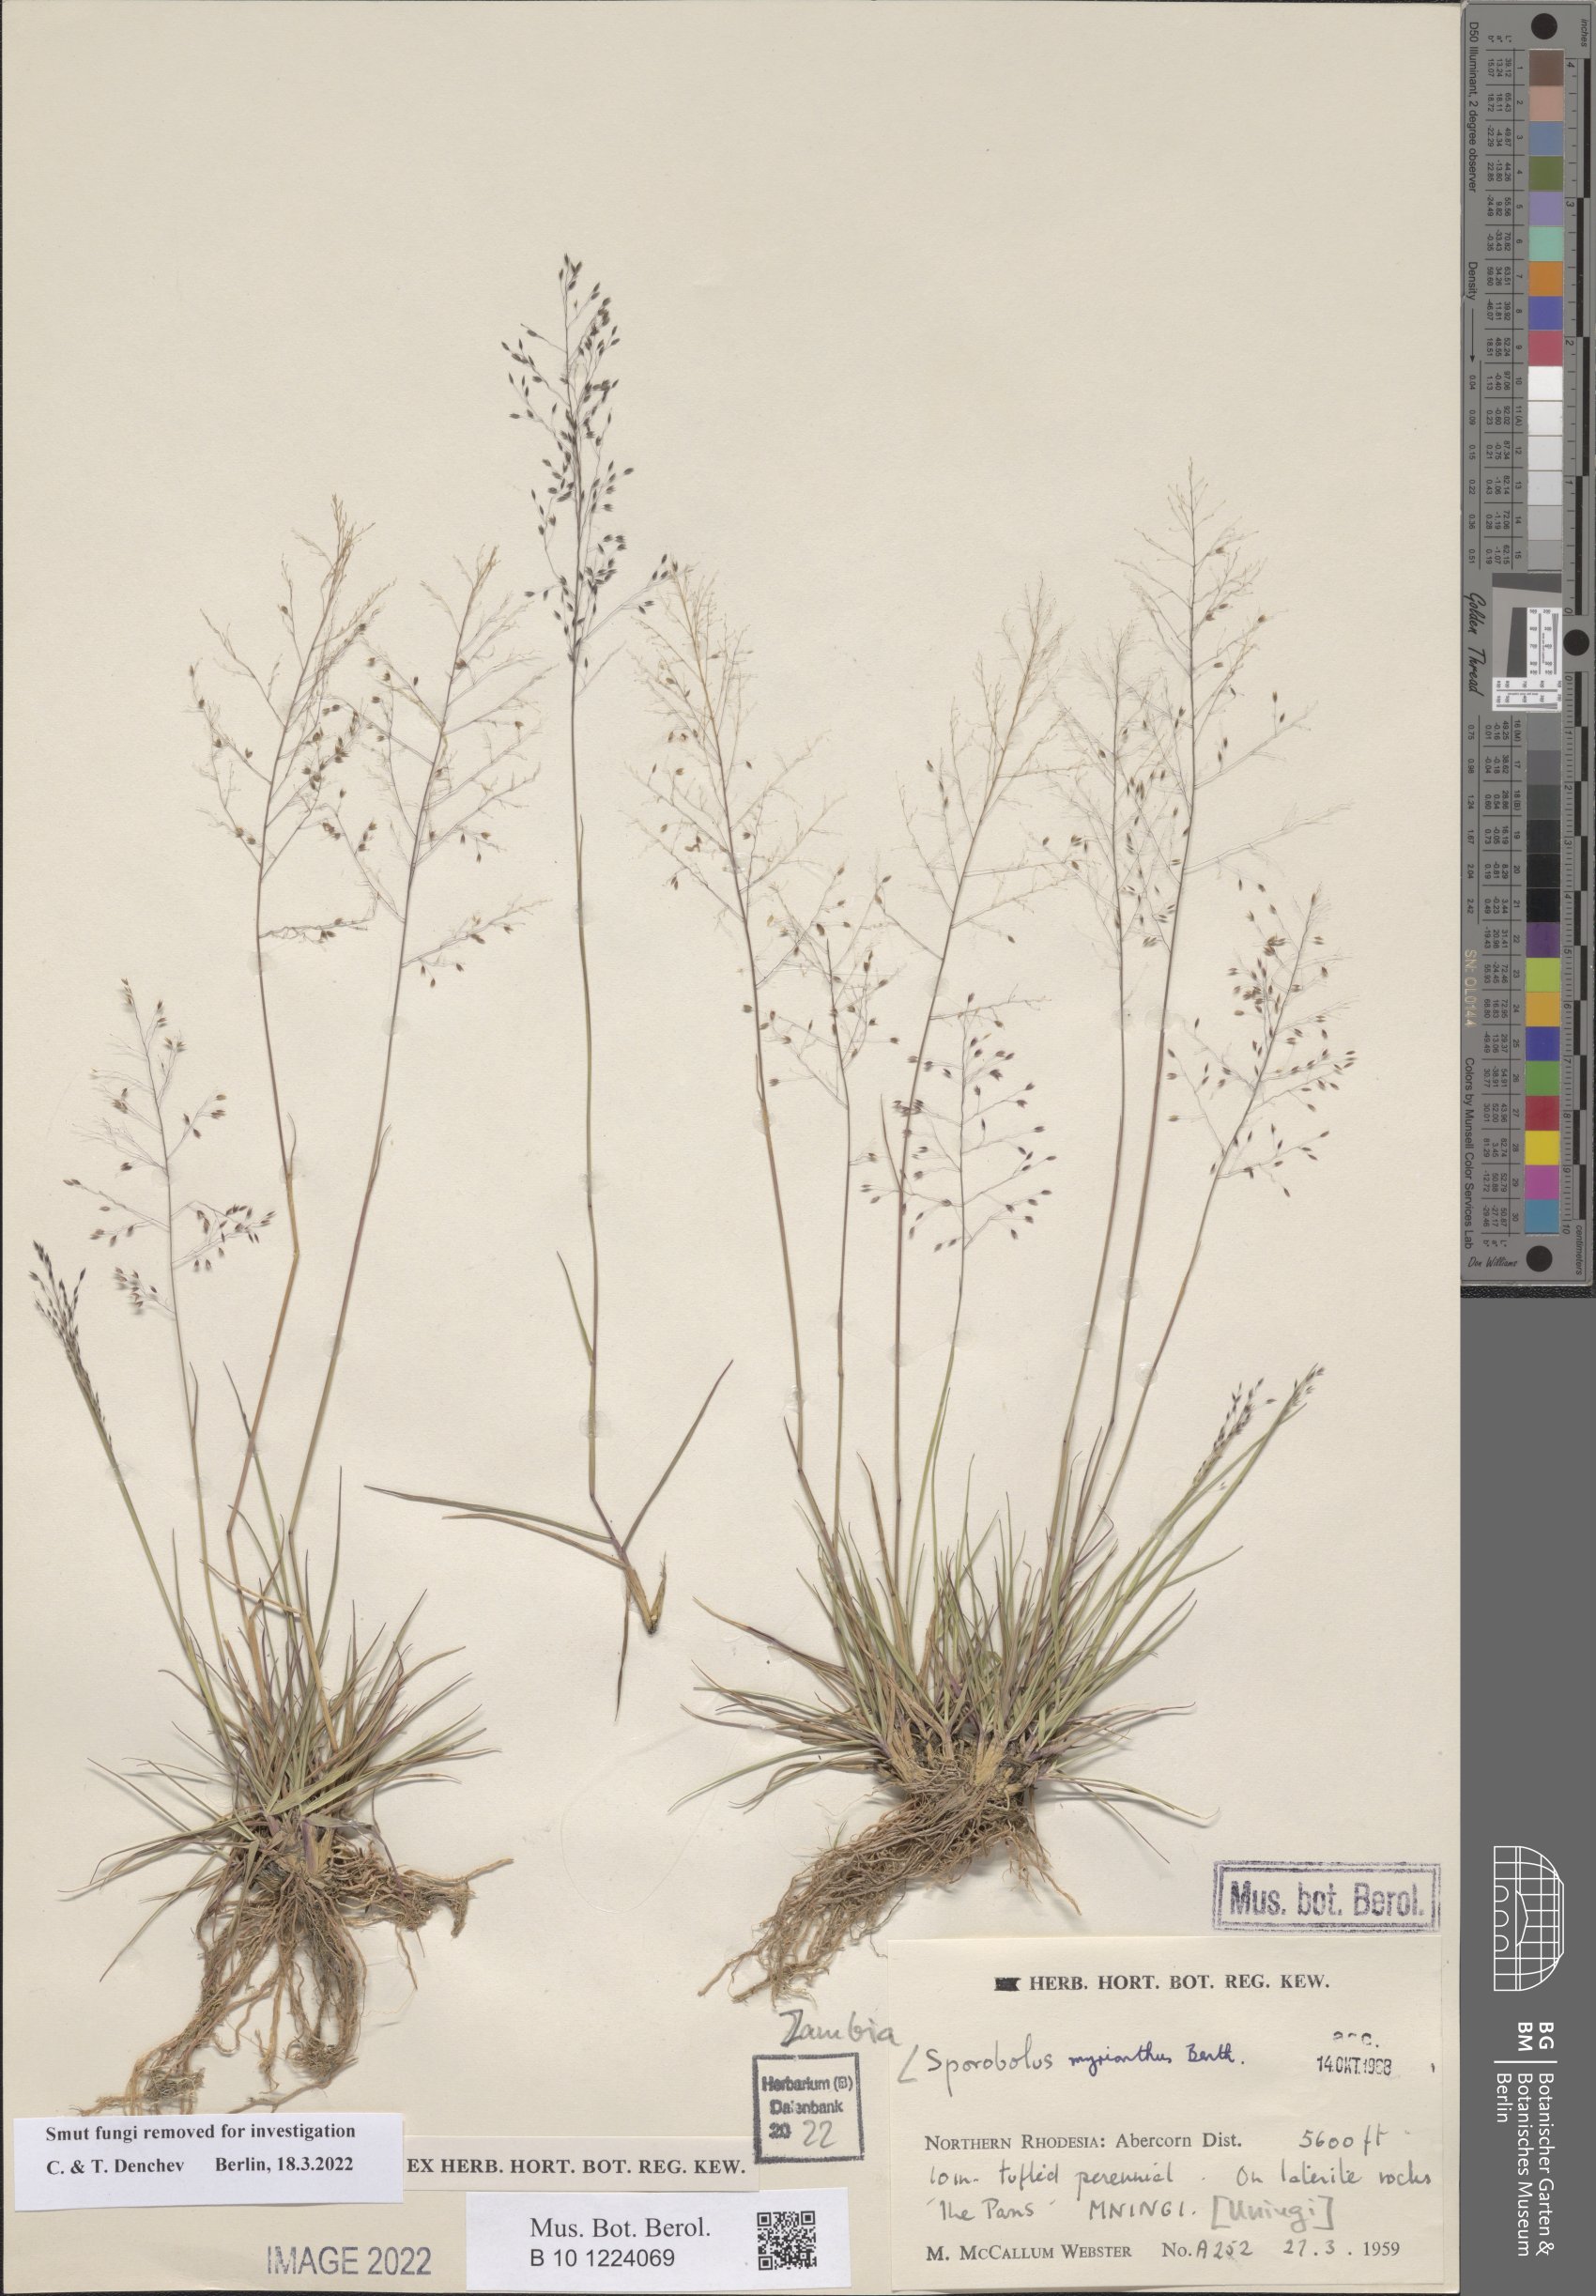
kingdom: Plantae
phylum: Tracheophyta
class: Liliopsida
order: Poales
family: Poaceae
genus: Sporobolus
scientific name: Sporobolus myrianthus
